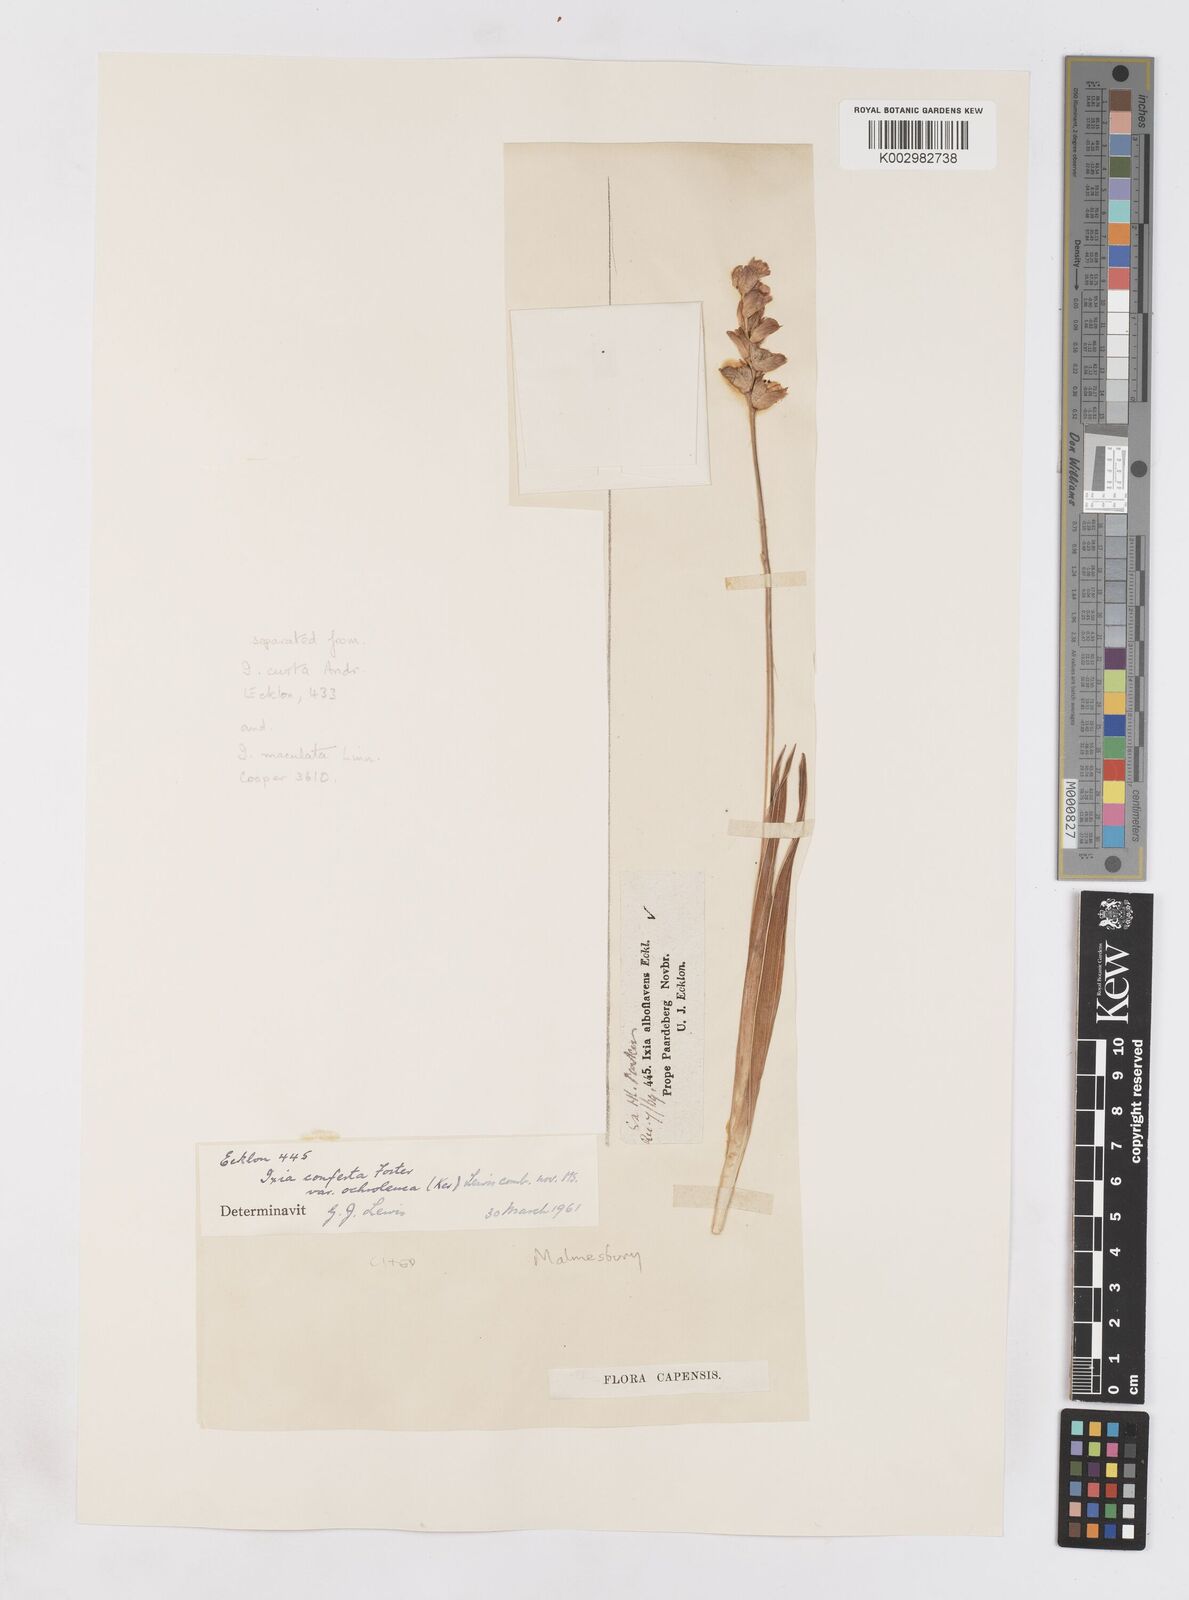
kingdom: Plantae
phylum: Tracheophyta
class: Liliopsida
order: Asparagales
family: Iridaceae
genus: Ixia
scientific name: Ixia abbreviata
